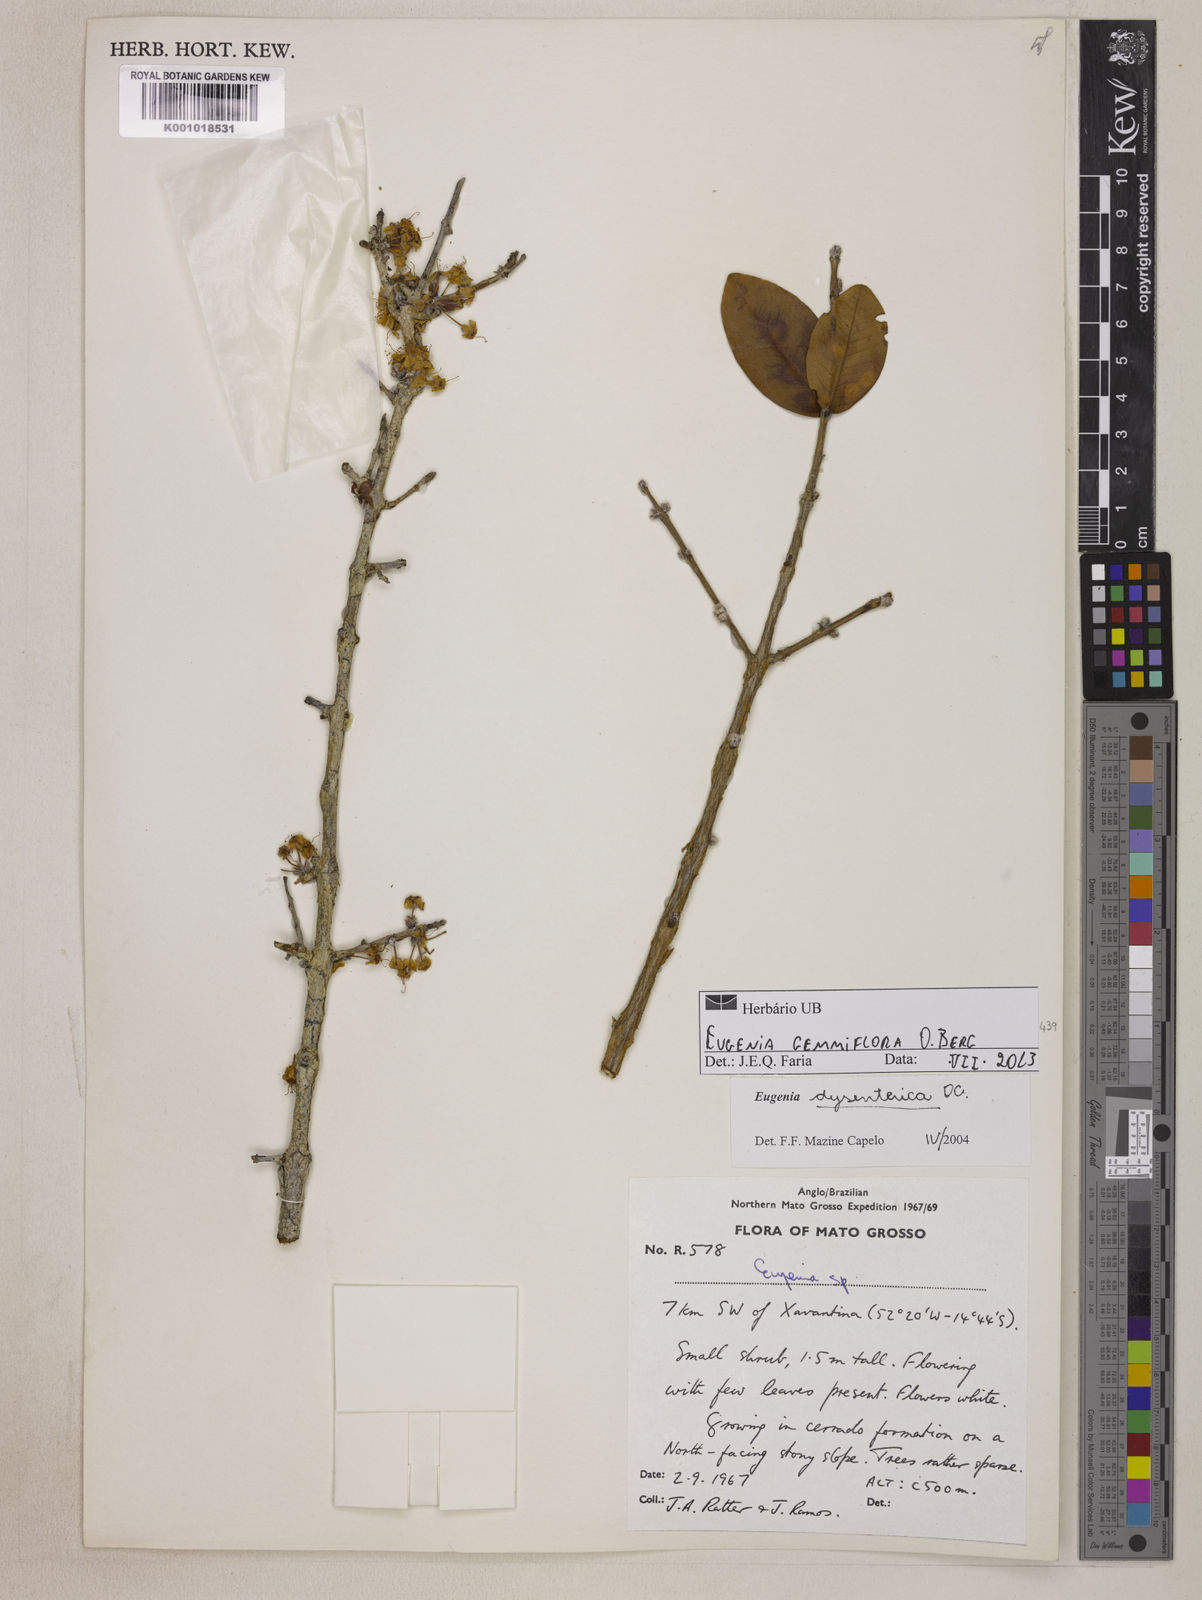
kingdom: Plantae
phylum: Tracheophyta
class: Magnoliopsida
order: Myrtales
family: Myrtaceae
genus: Eugenia
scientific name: Eugenia dysenterica
